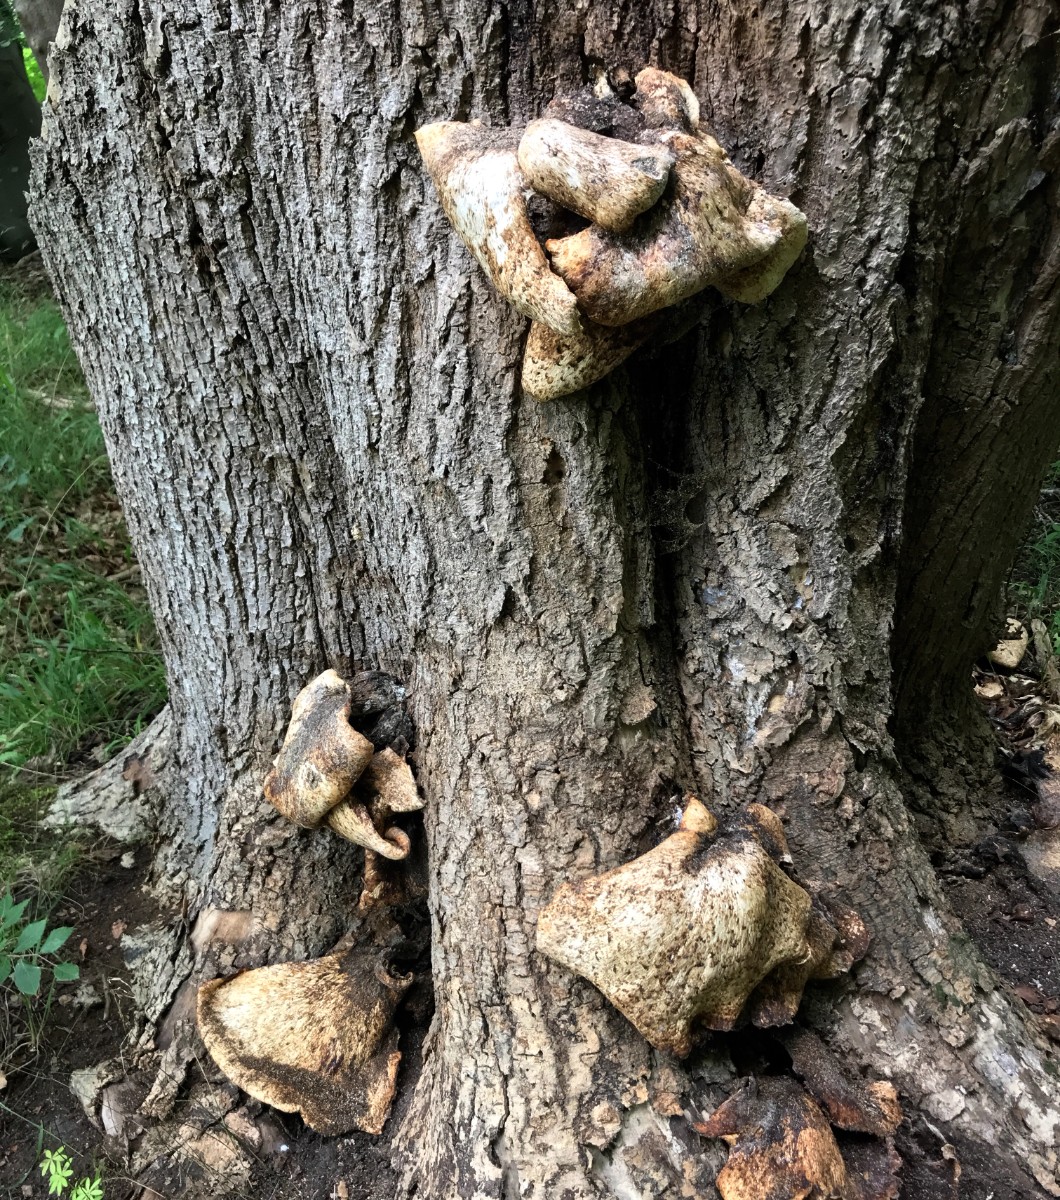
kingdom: Fungi
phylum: Basidiomycota
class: Agaricomycetes
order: Polyporales
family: Polyporaceae
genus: Cerioporus
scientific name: Cerioporus squamosus
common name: skællet stilkporesvamp
